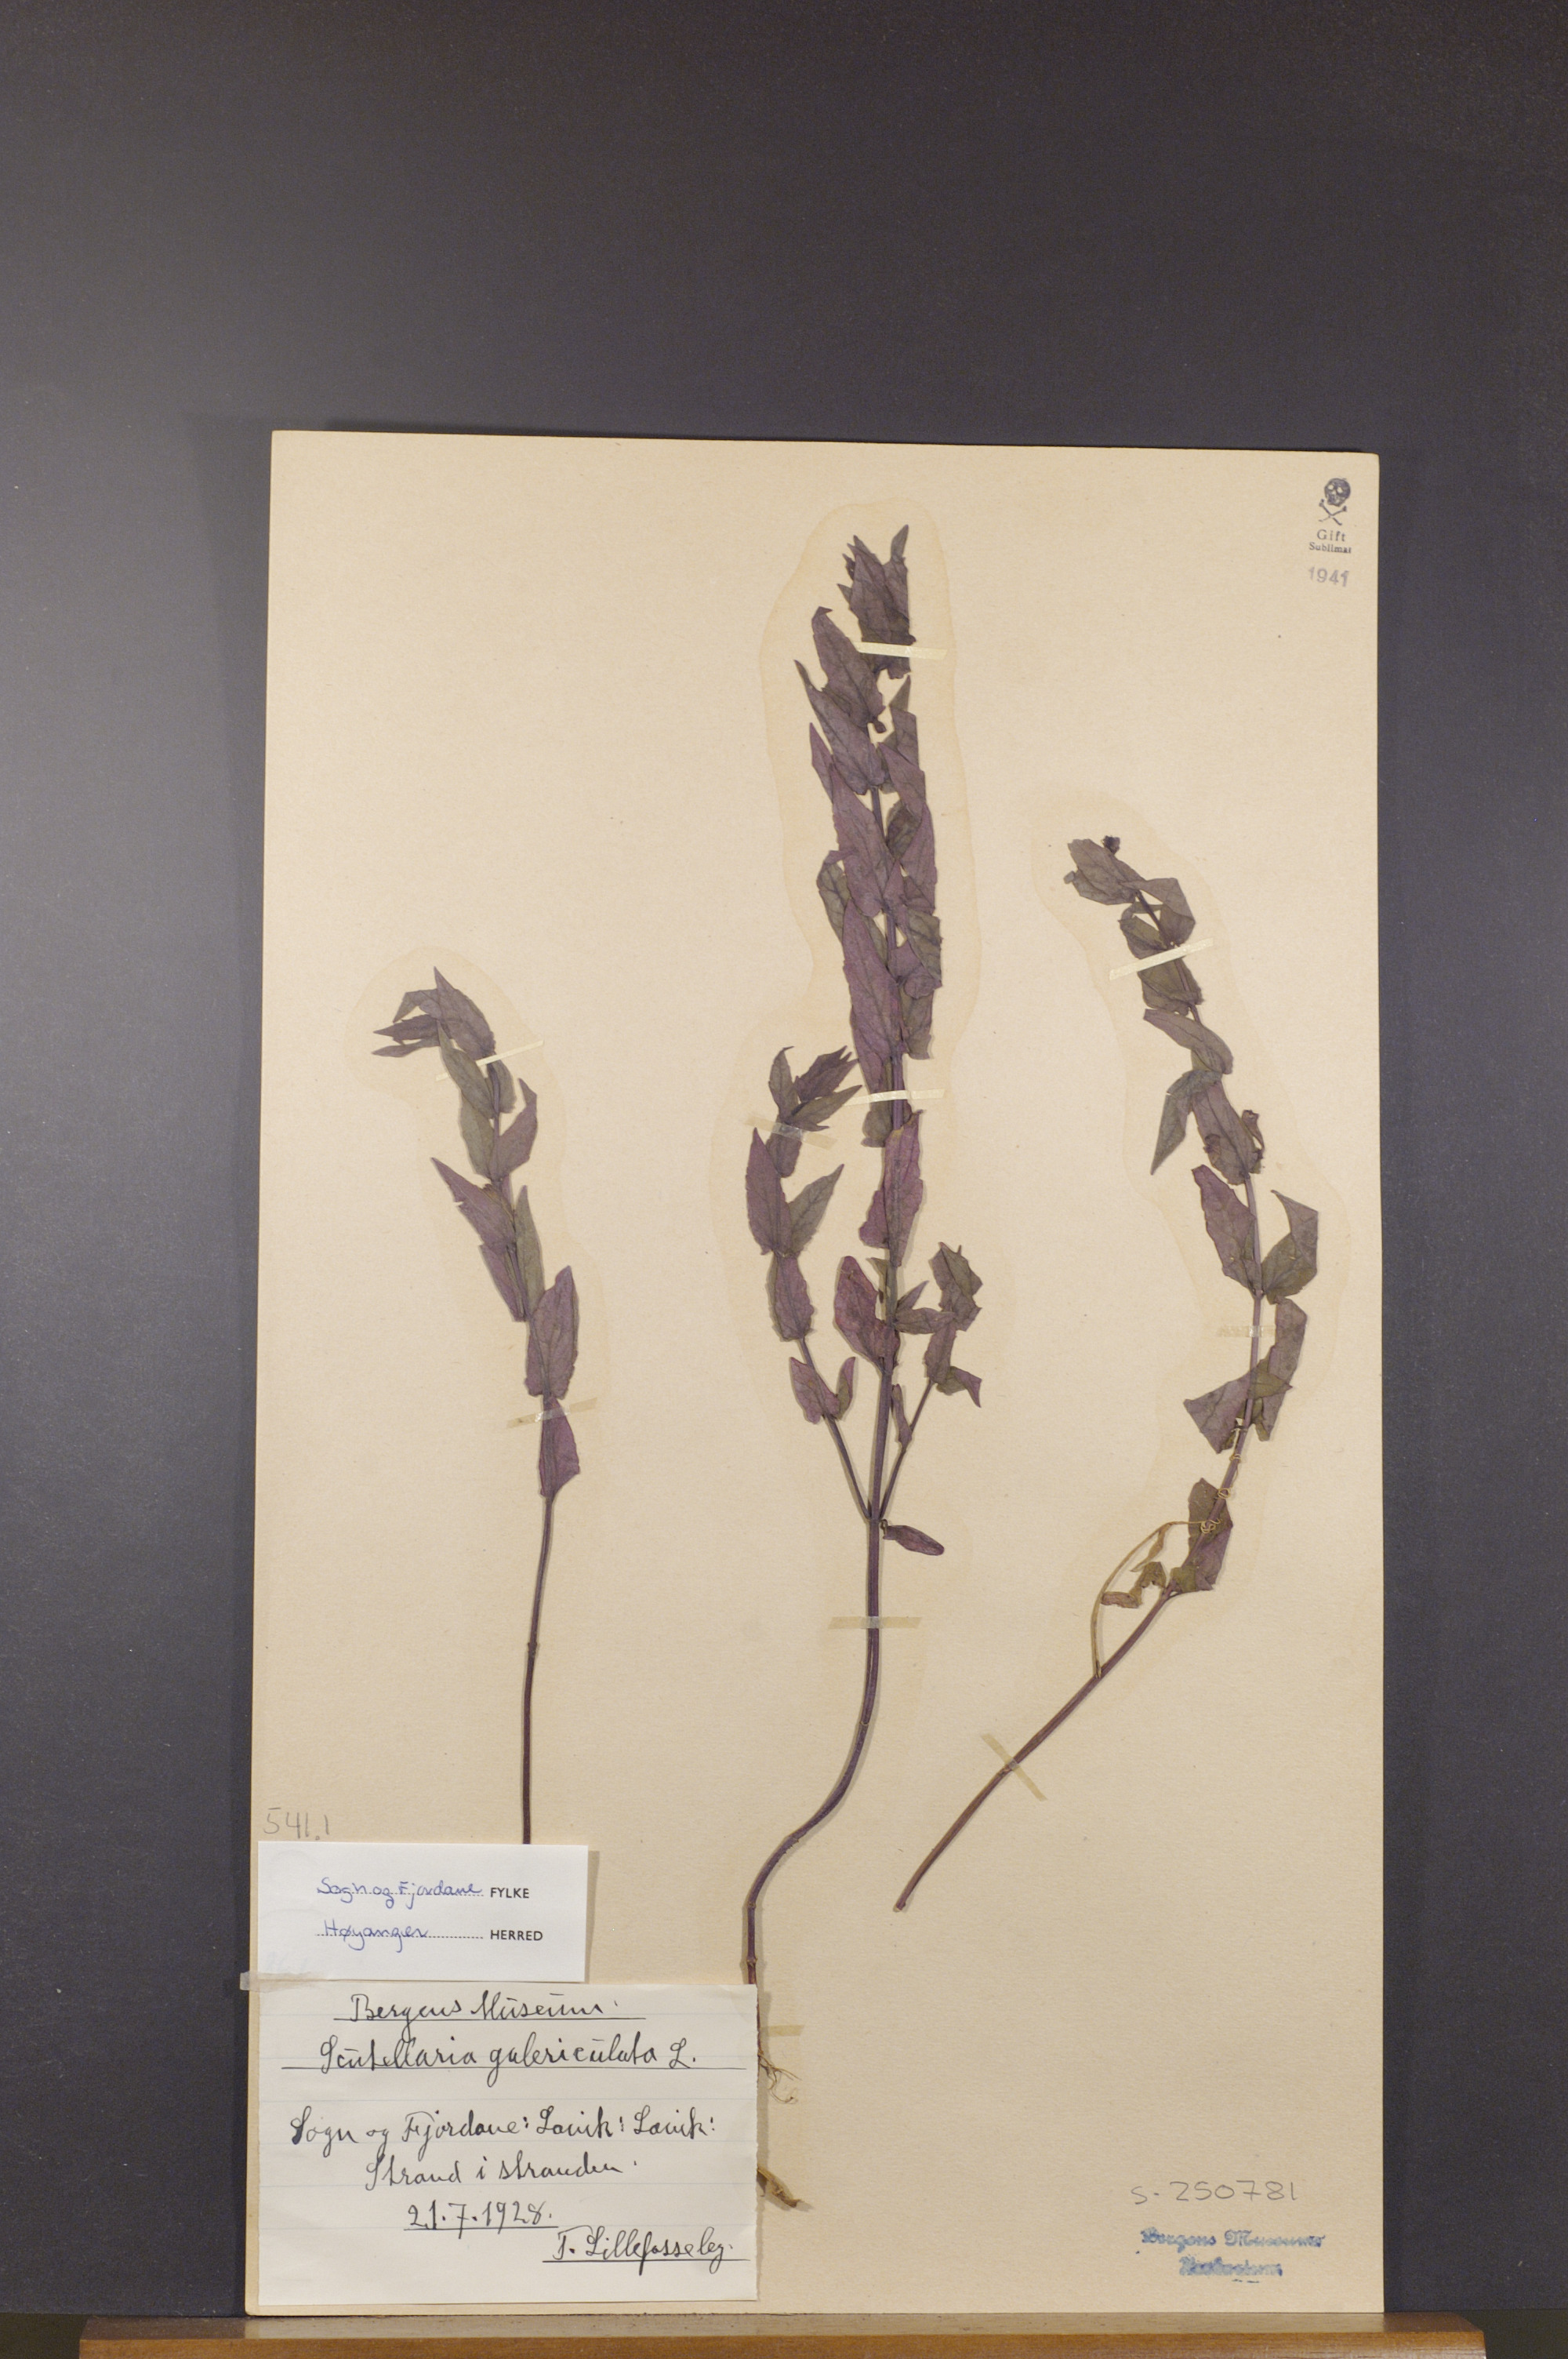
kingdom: Plantae
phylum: Tracheophyta
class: Magnoliopsida
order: Lamiales
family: Lamiaceae
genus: Scutellaria
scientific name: Scutellaria galericulata
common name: Skullcap
